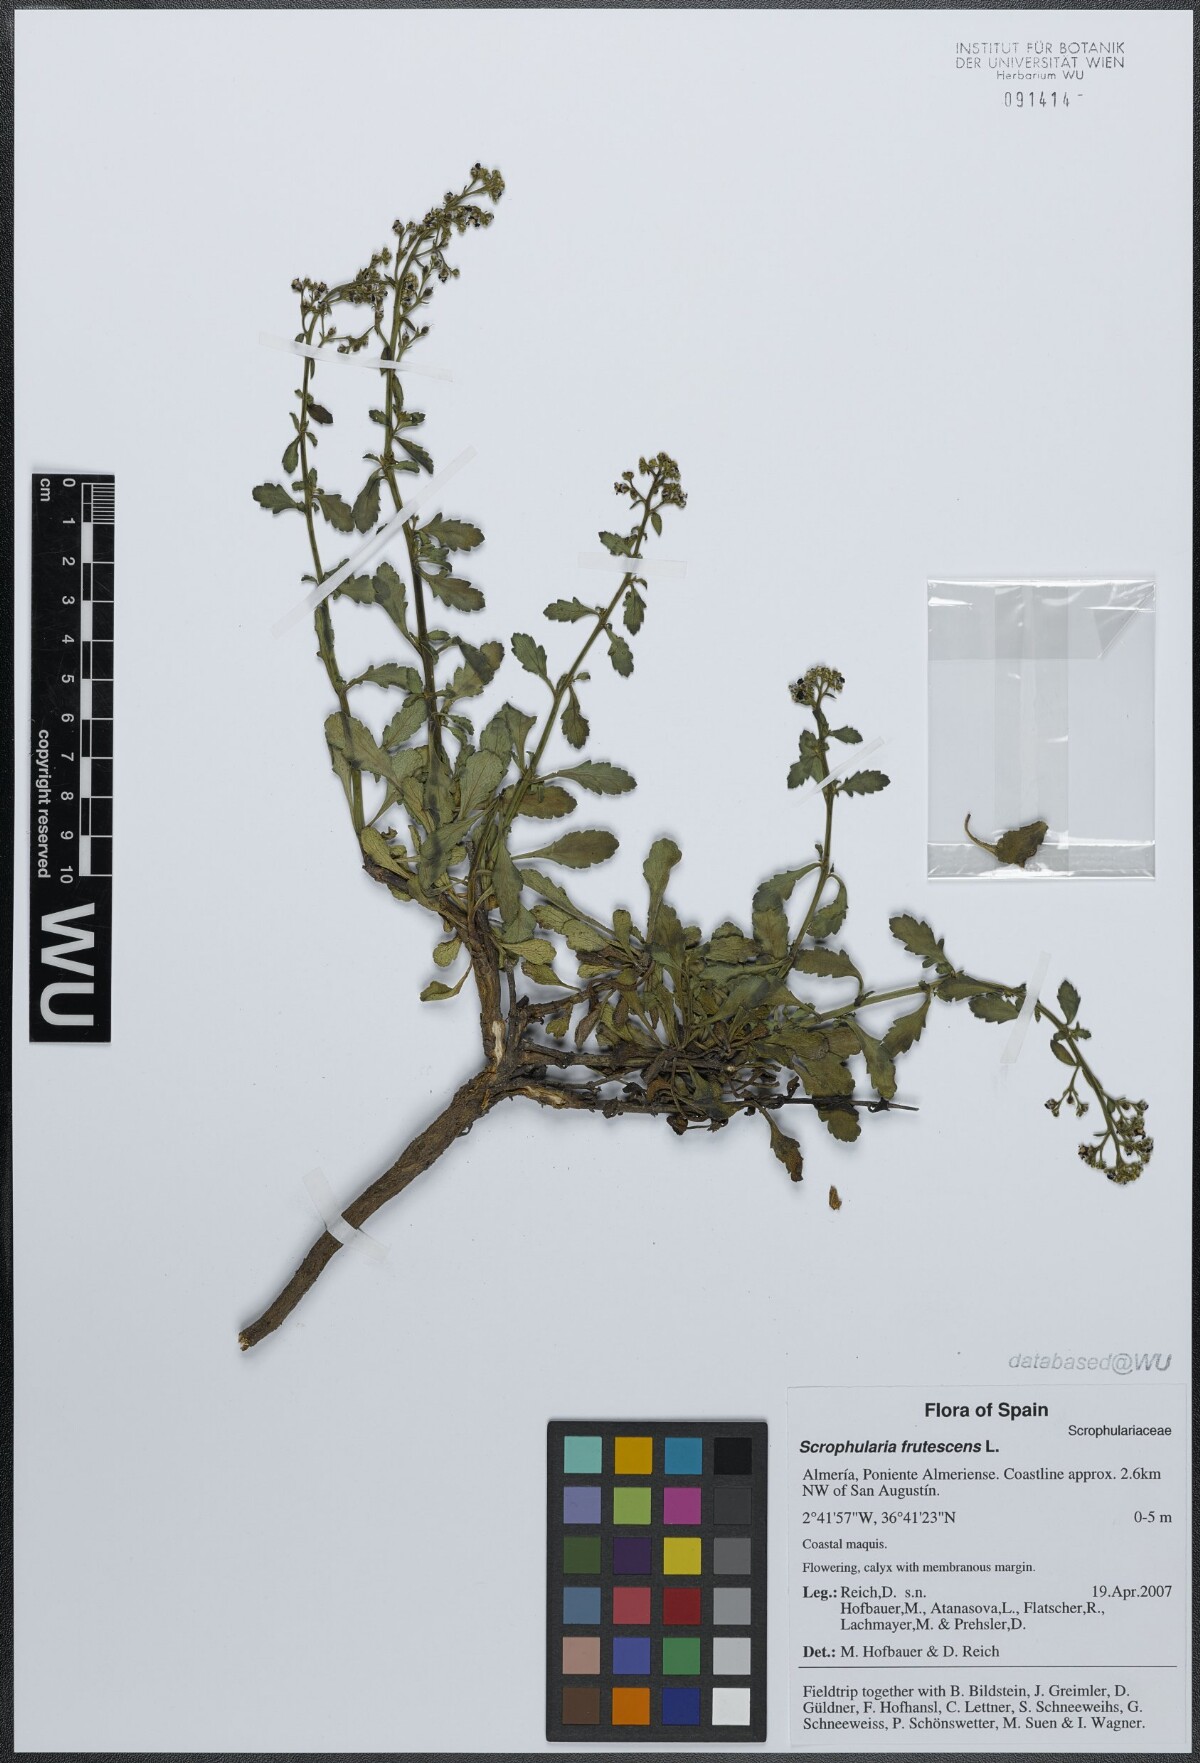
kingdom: Plantae
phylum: Tracheophyta
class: Magnoliopsida
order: Lamiales
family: Scrophulariaceae
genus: Scrophularia
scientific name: Scrophularia frutescens
